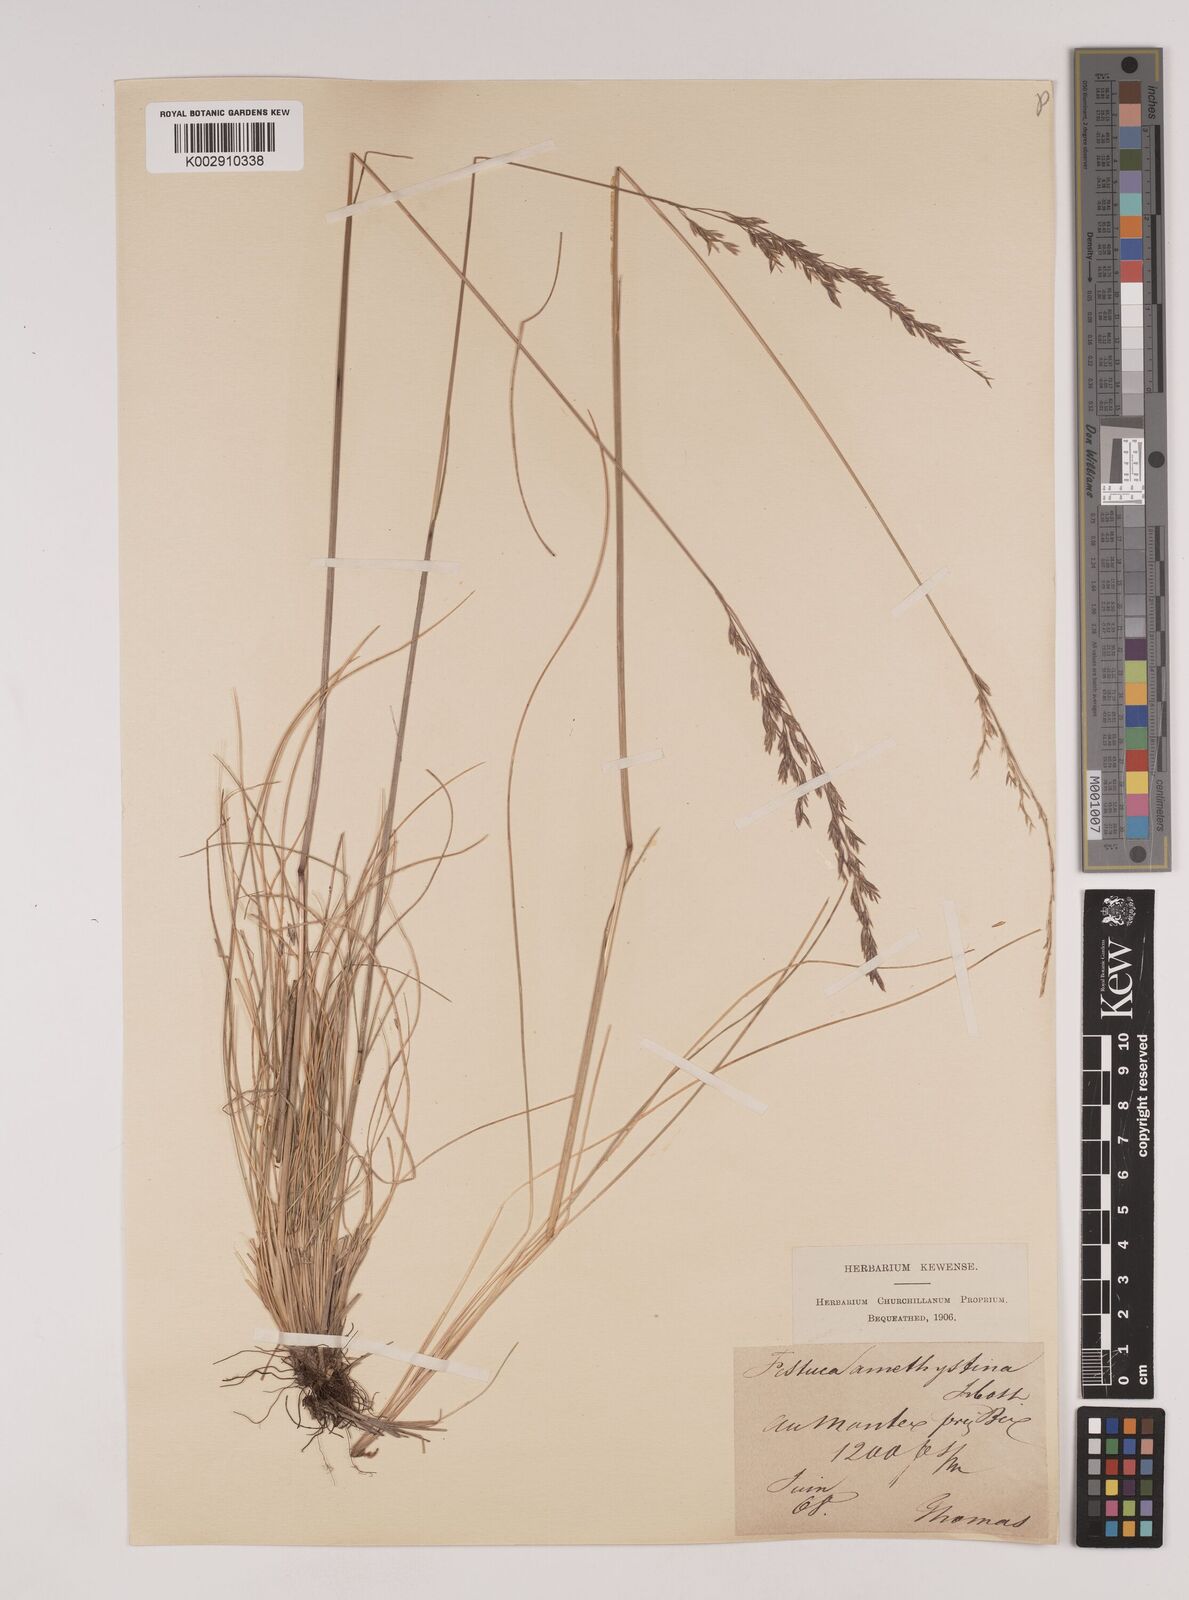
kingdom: Plantae
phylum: Tracheophyta
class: Liliopsida
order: Poales
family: Poaceae
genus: Festuca
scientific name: Festuca amethystina
